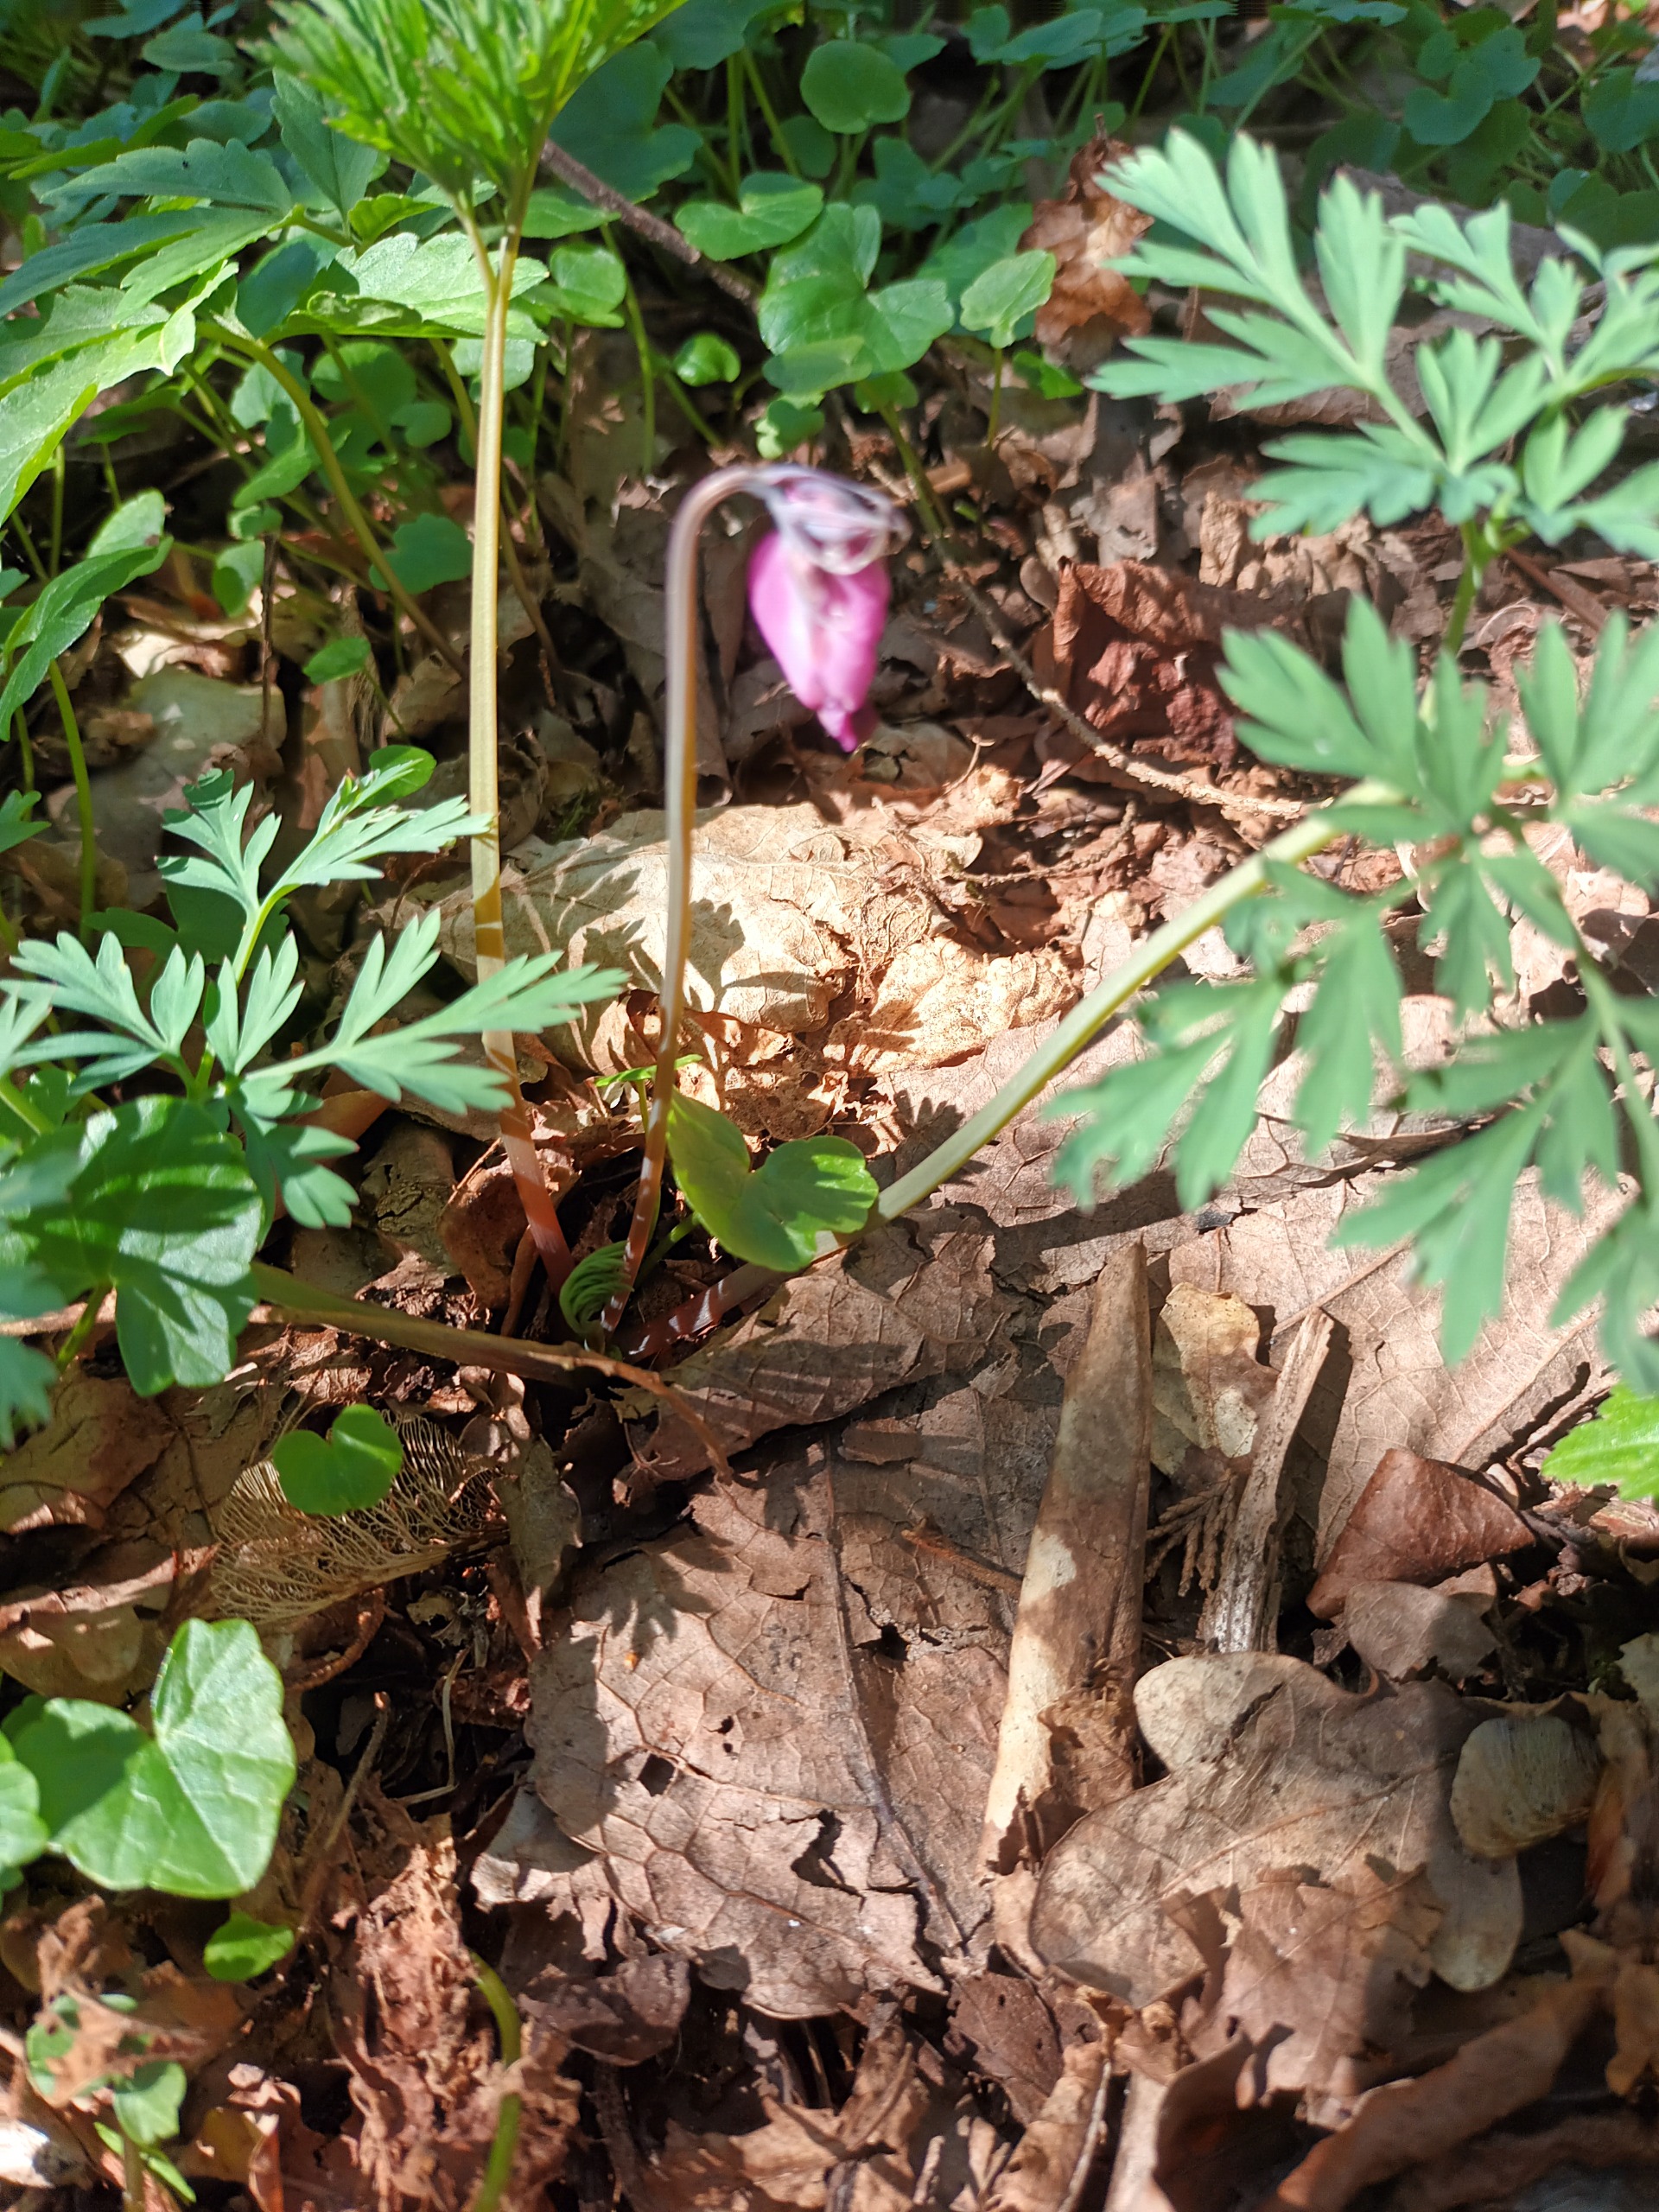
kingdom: Plantae
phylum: Tracheophyta
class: Magnoliopsida
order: Ranunculales
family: Papaveraceae
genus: Dicentra
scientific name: Dicentra formosa
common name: Småhjerte
